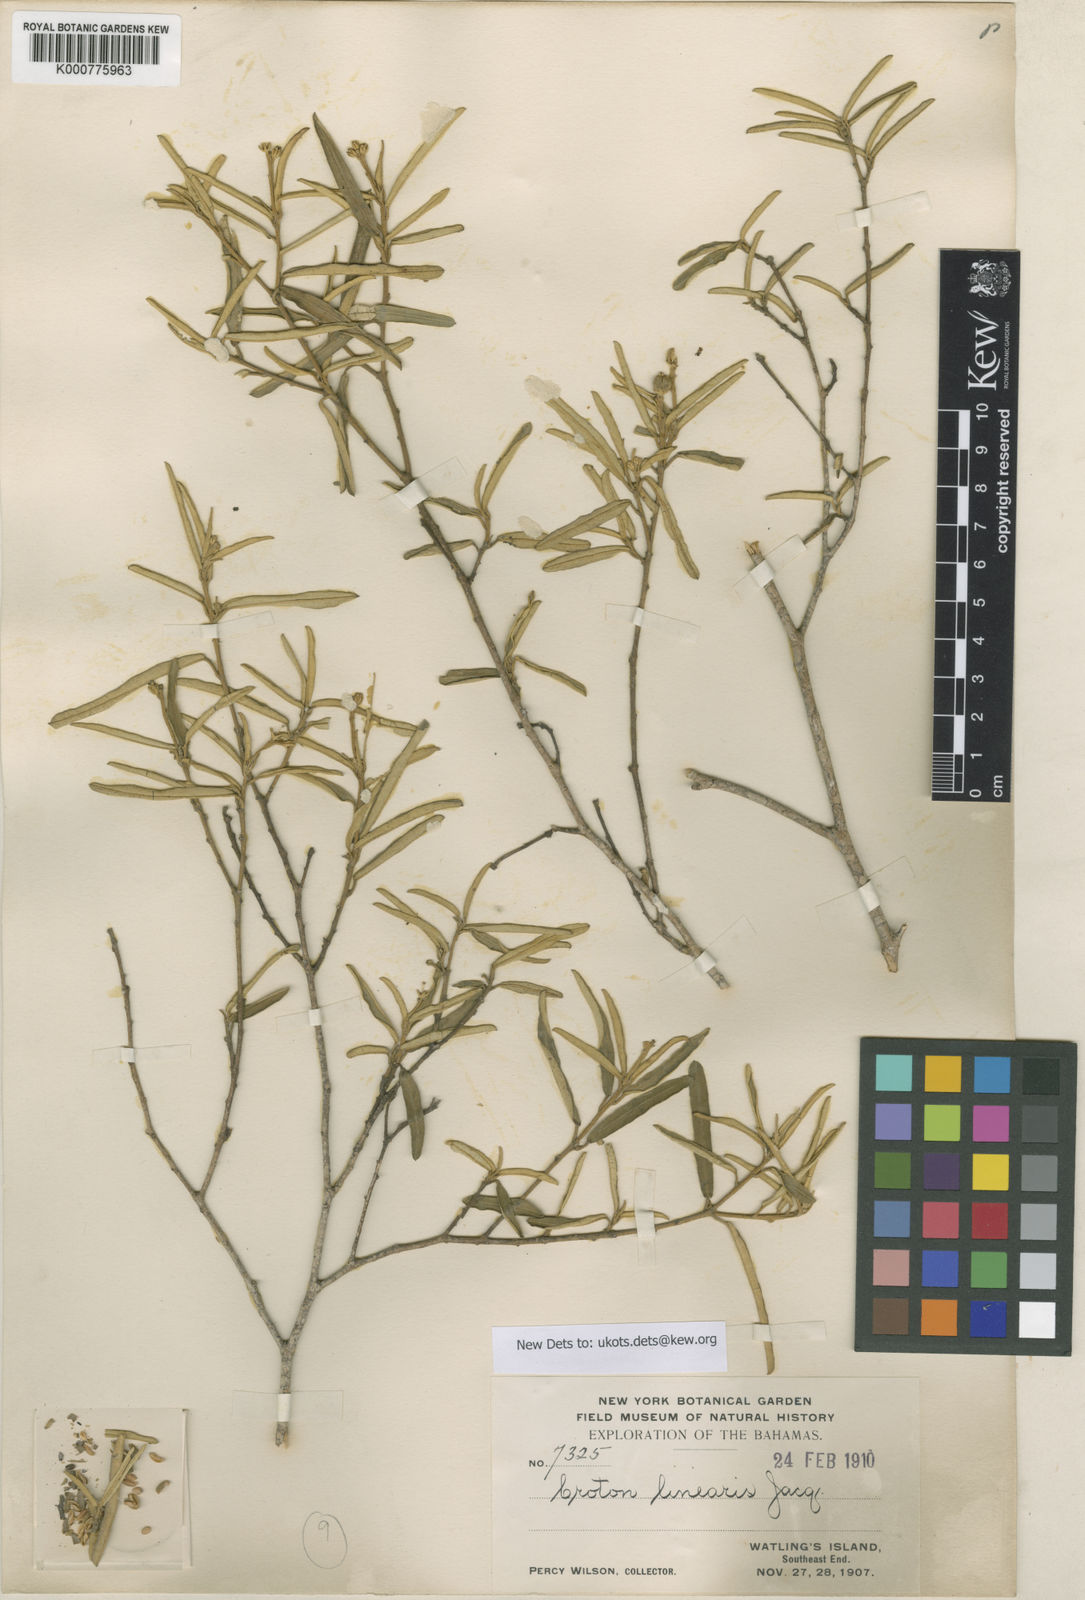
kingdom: Plantae
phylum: Tracheophyta
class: Magnoliopsida
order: Malpighiales
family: Euphorbiaceae
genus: Croton
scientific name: Croton linearis
